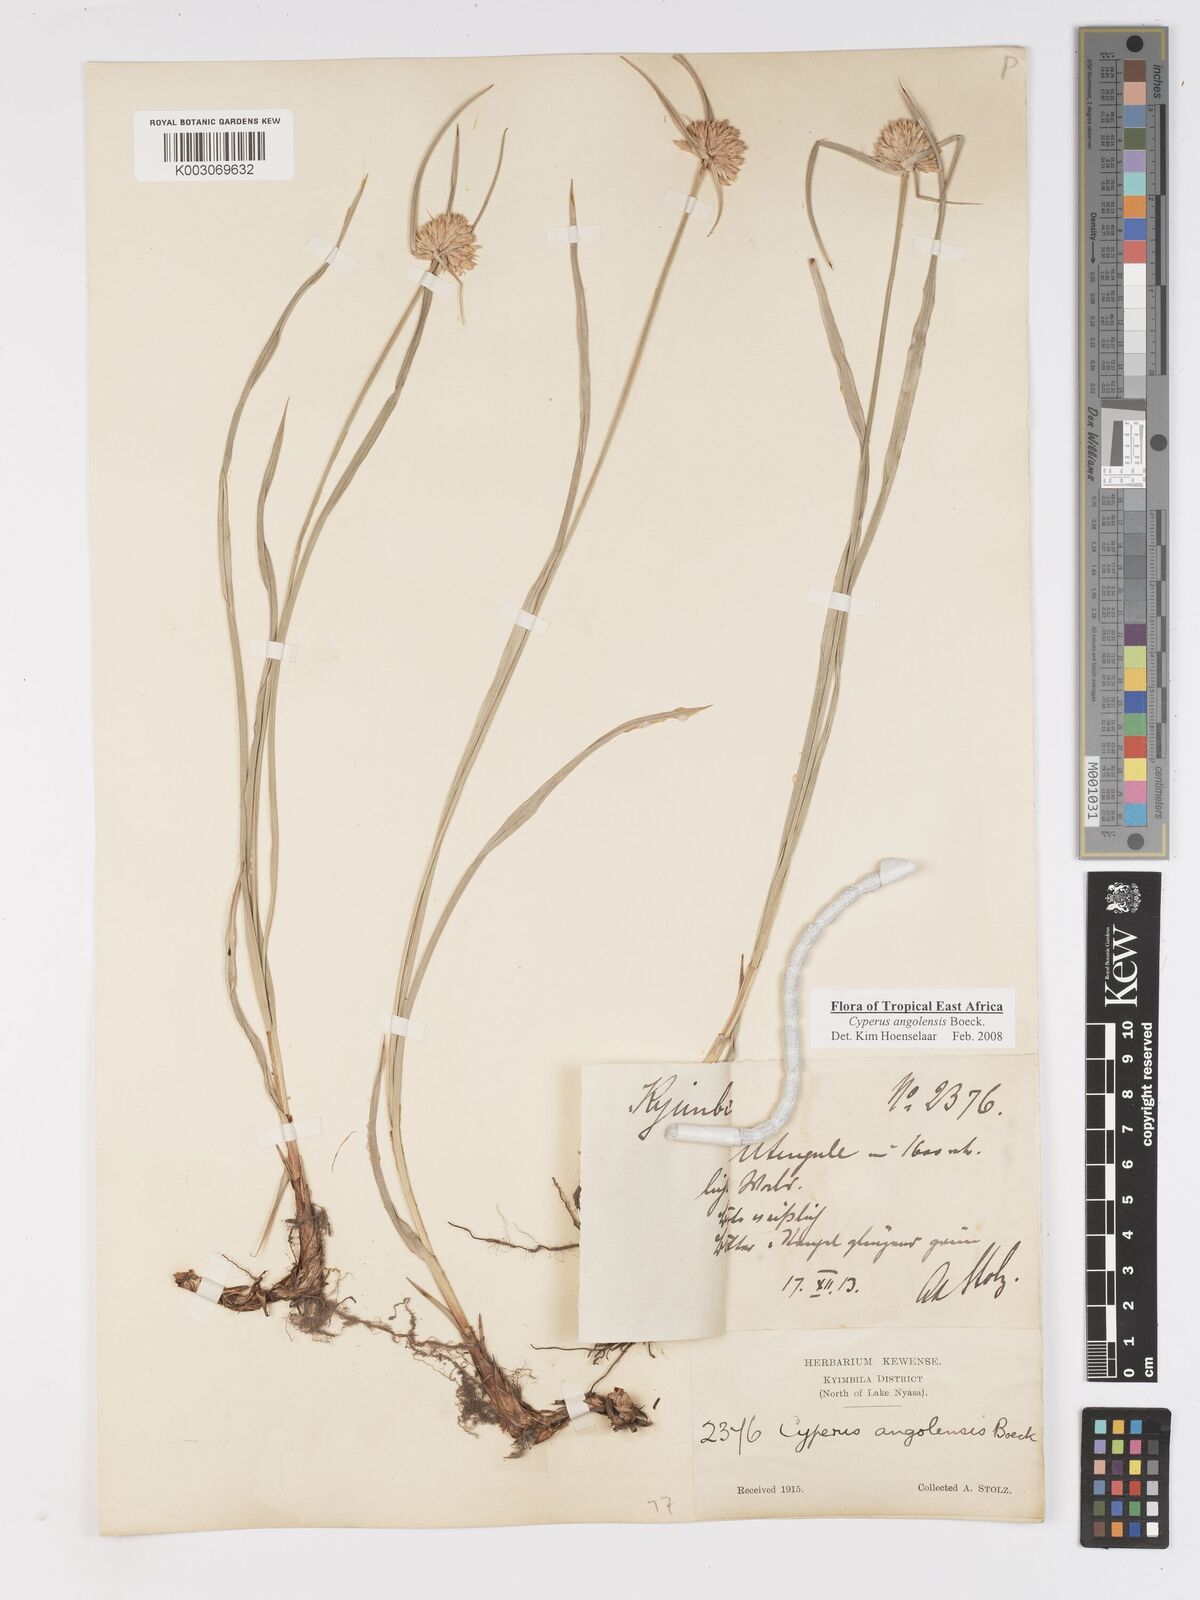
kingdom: Plantae
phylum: Tracheophyta
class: Liliopsida
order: Poales
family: Cyperaceae
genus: Cyperus
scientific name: Cyperus angolensis
